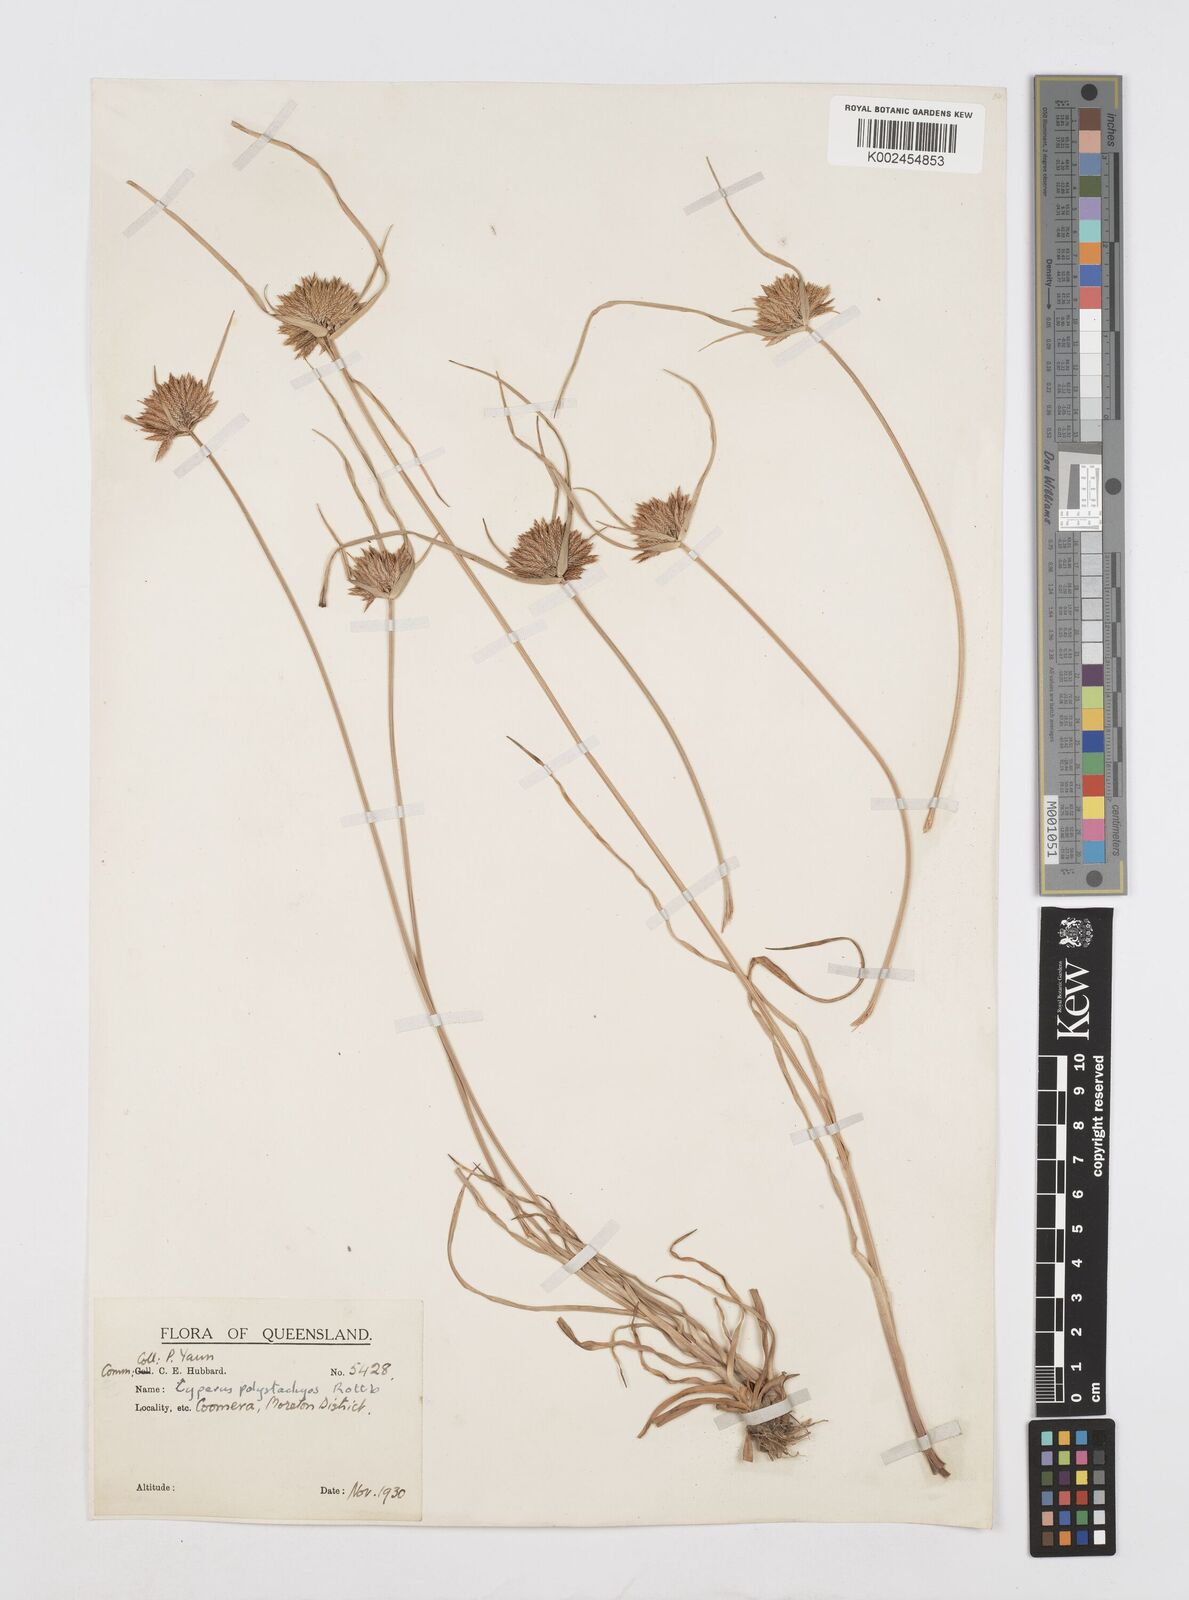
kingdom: Plantae
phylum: Tracheophyta
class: Liliopsida
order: Poales
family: Cyperaceae
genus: Cyperus
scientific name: Cyperus polystachyos
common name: Bunchy flat sedge
